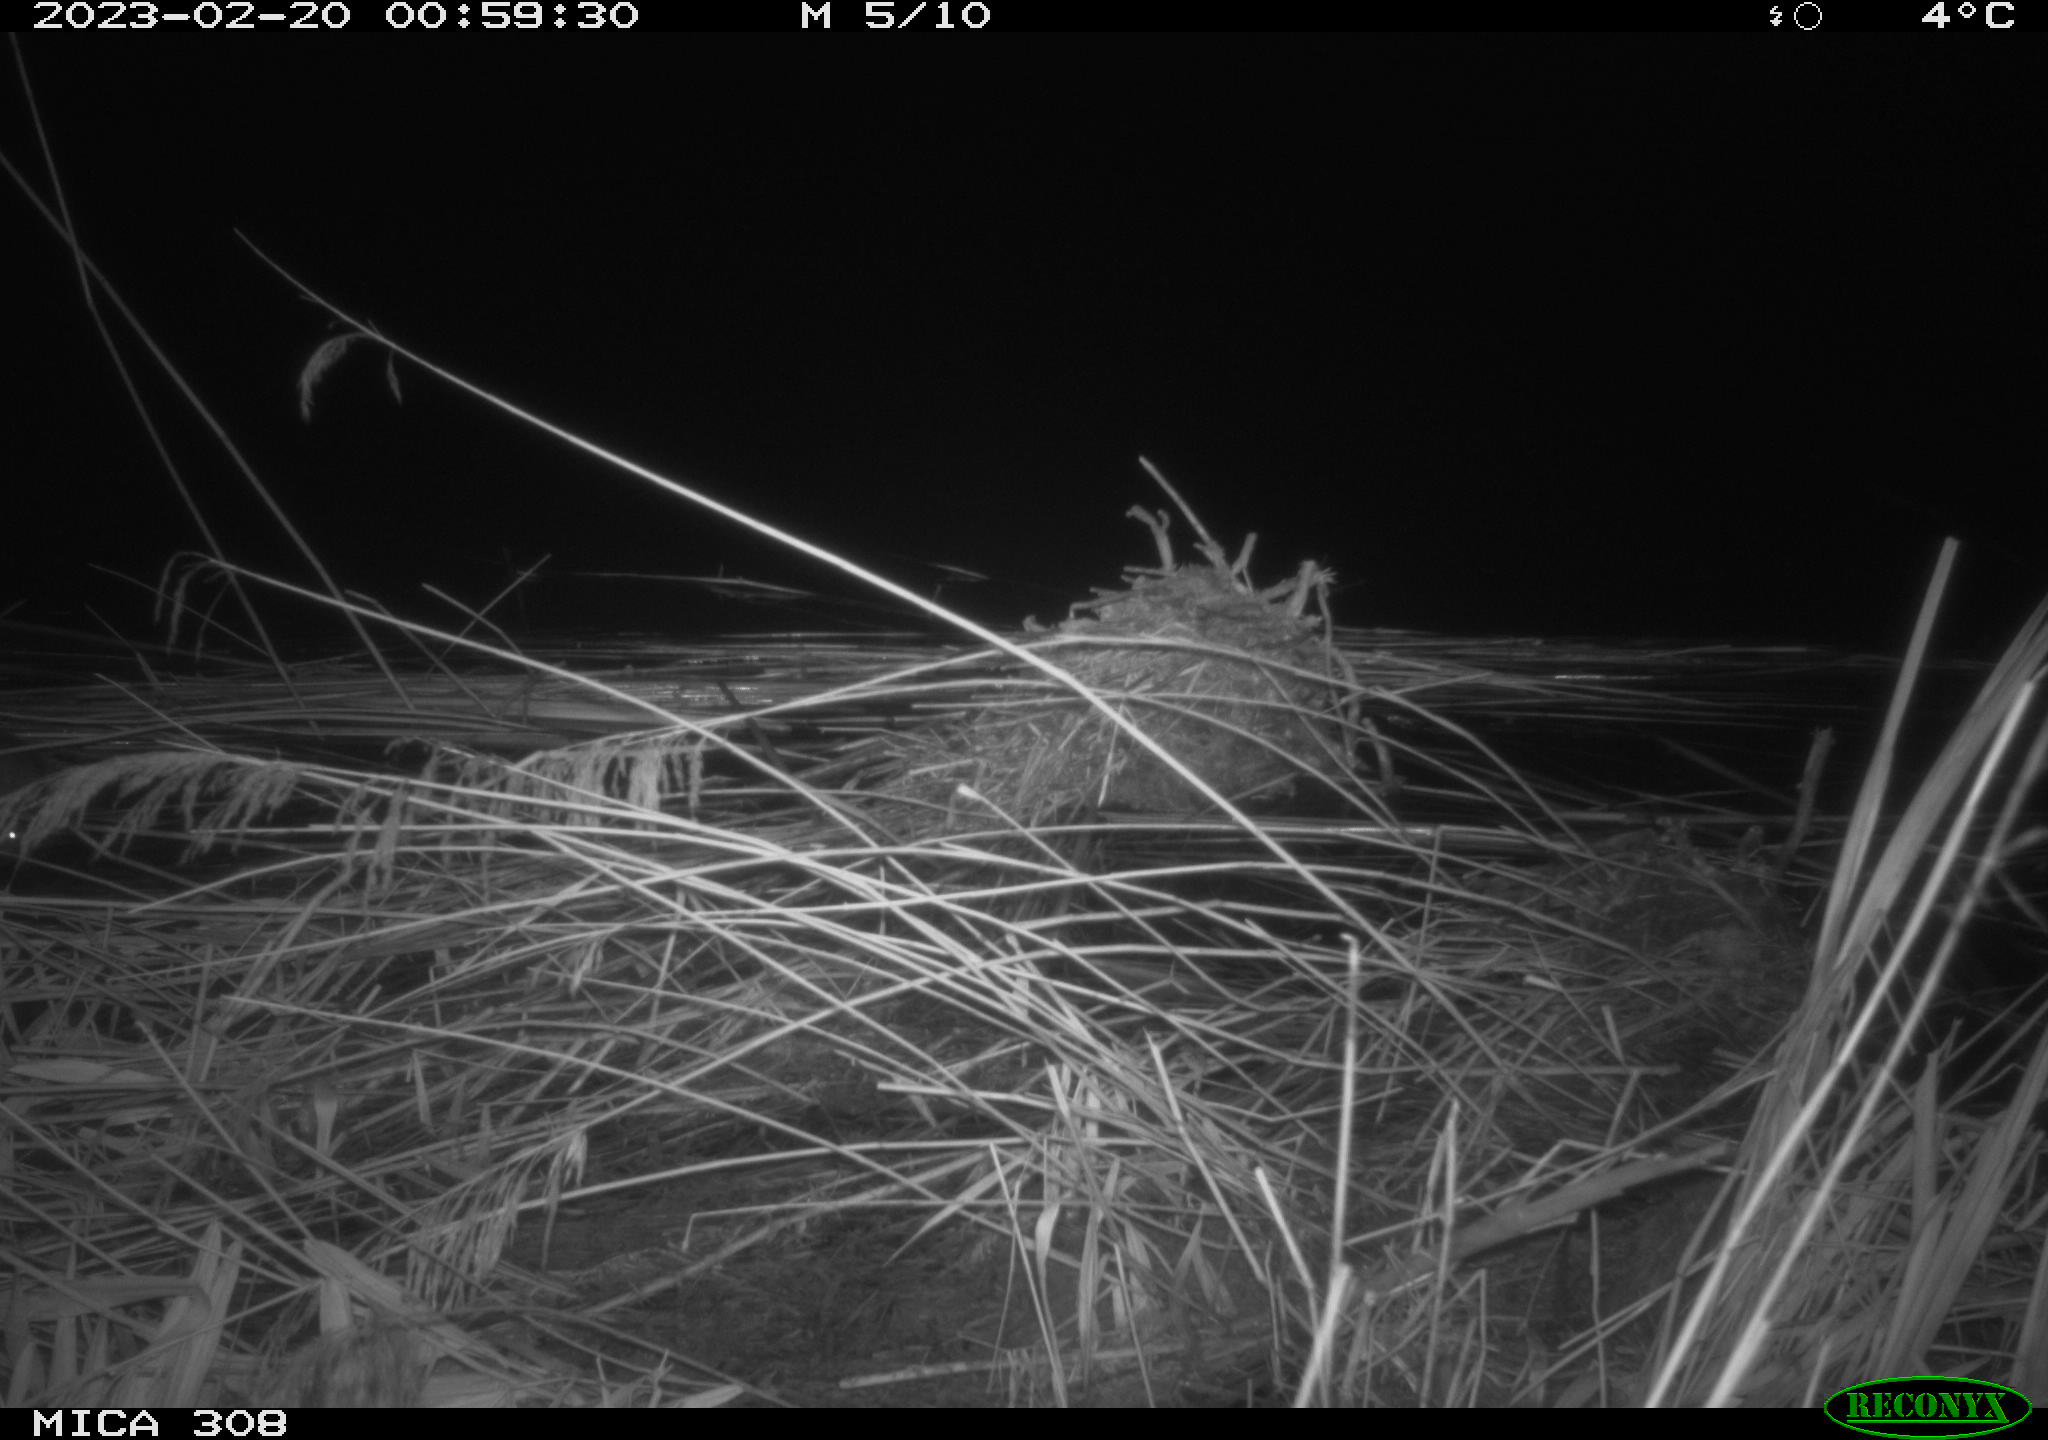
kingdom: Animalia
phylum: Chordata
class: Mammalia
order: Rodentia
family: Muridae
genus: Rattus
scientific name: Rattus norvegicus
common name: Brown rat
